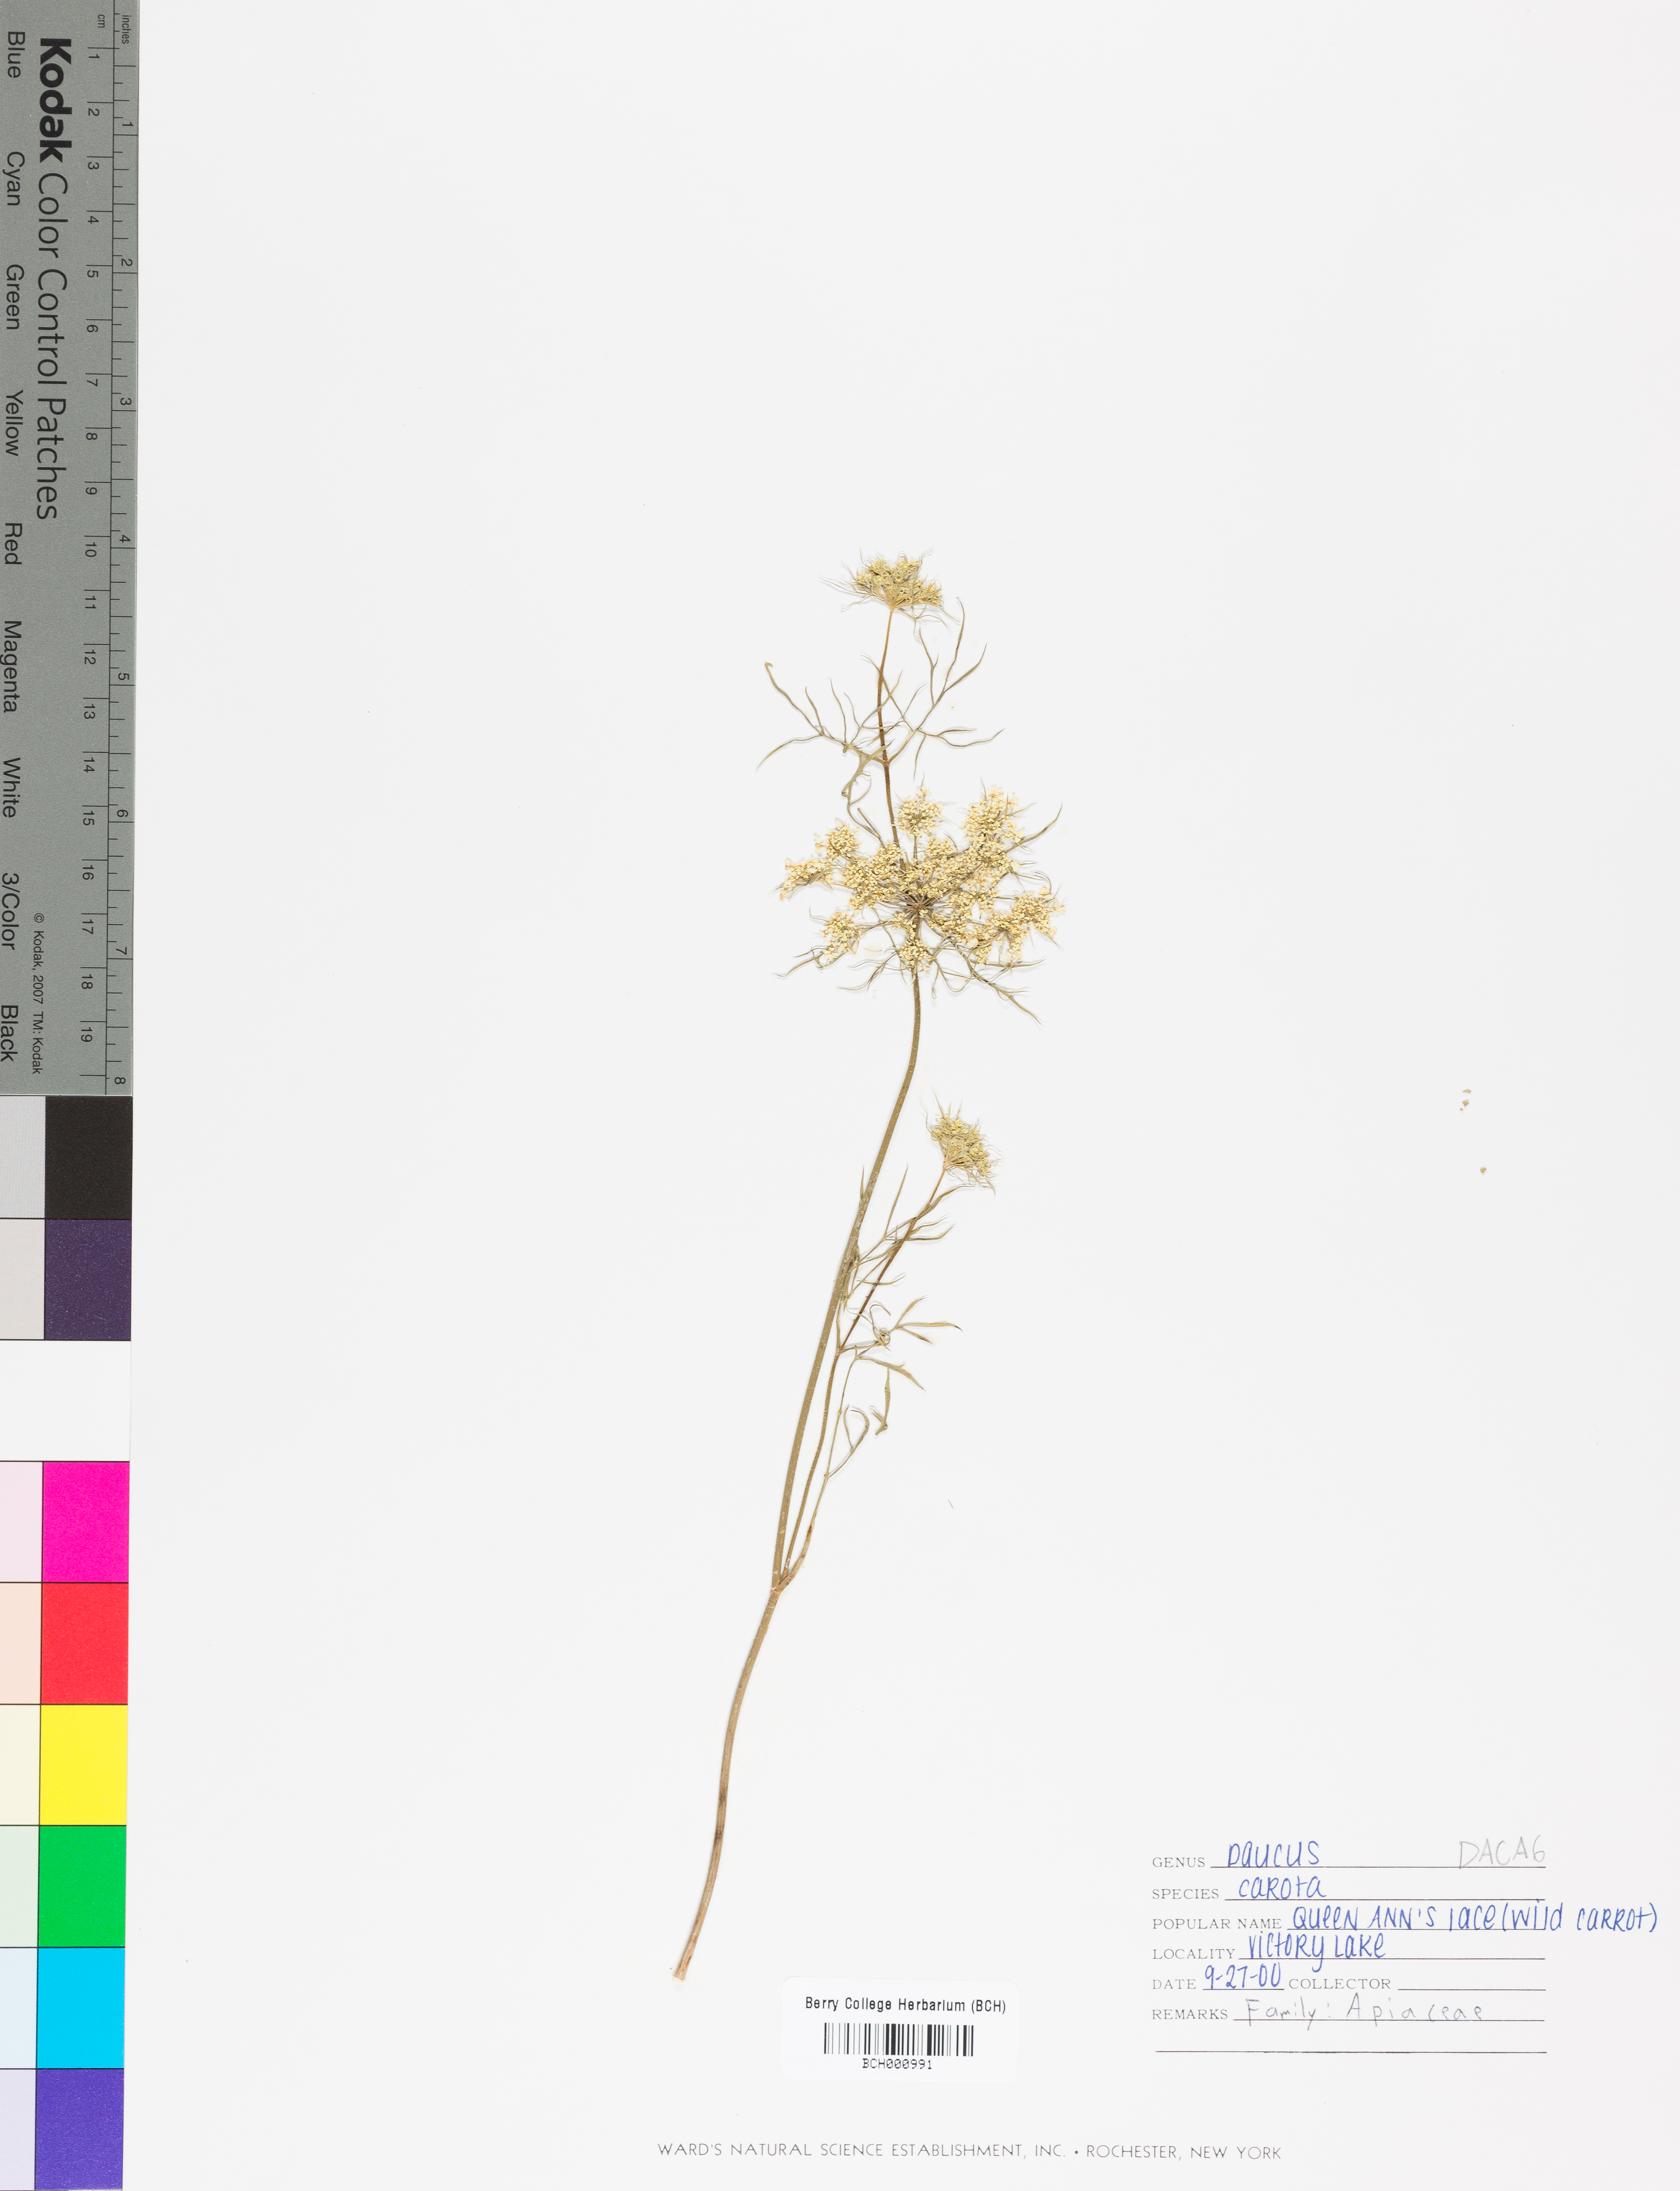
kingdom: Plantae
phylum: Tracheophyta
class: Magnoliopsida
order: Apiales
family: Apiaceae
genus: Daucus
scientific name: Daucus carota
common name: Wild carrot
